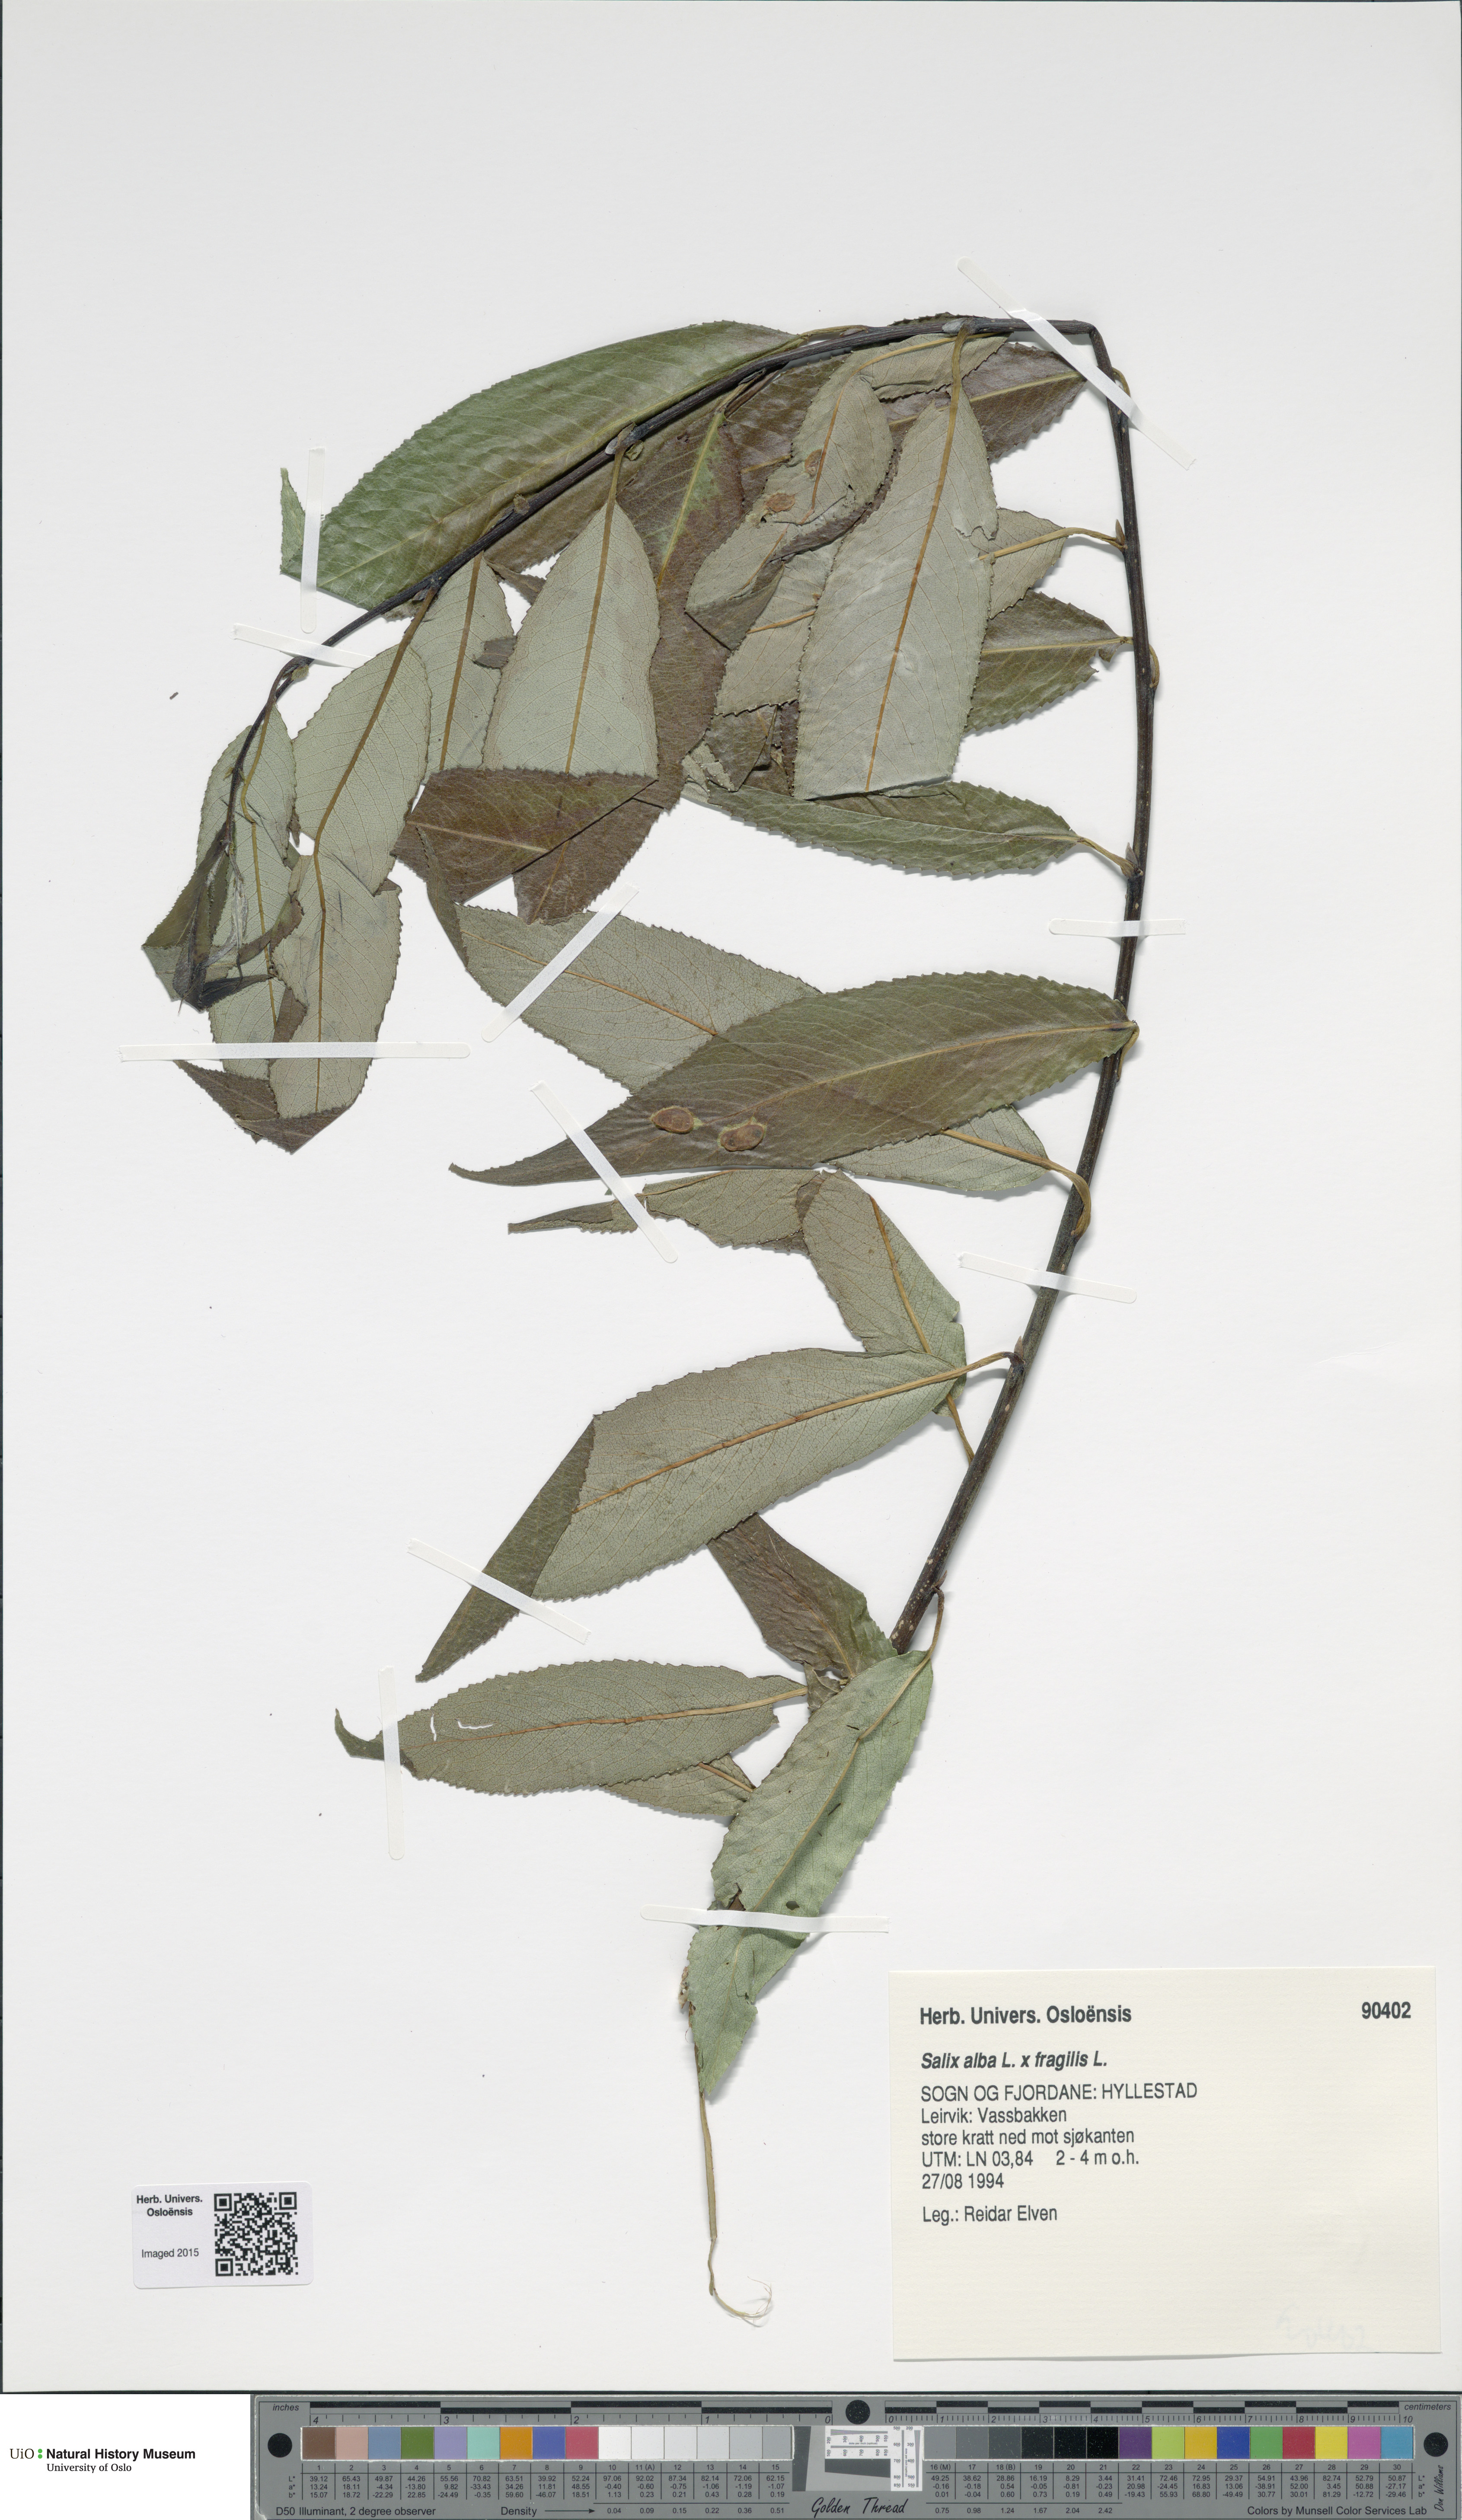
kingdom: Plantae
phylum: Tracheophyta
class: Magnoliopsida
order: Malpighiales
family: Salicaceae
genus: Salix
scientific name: Salix
